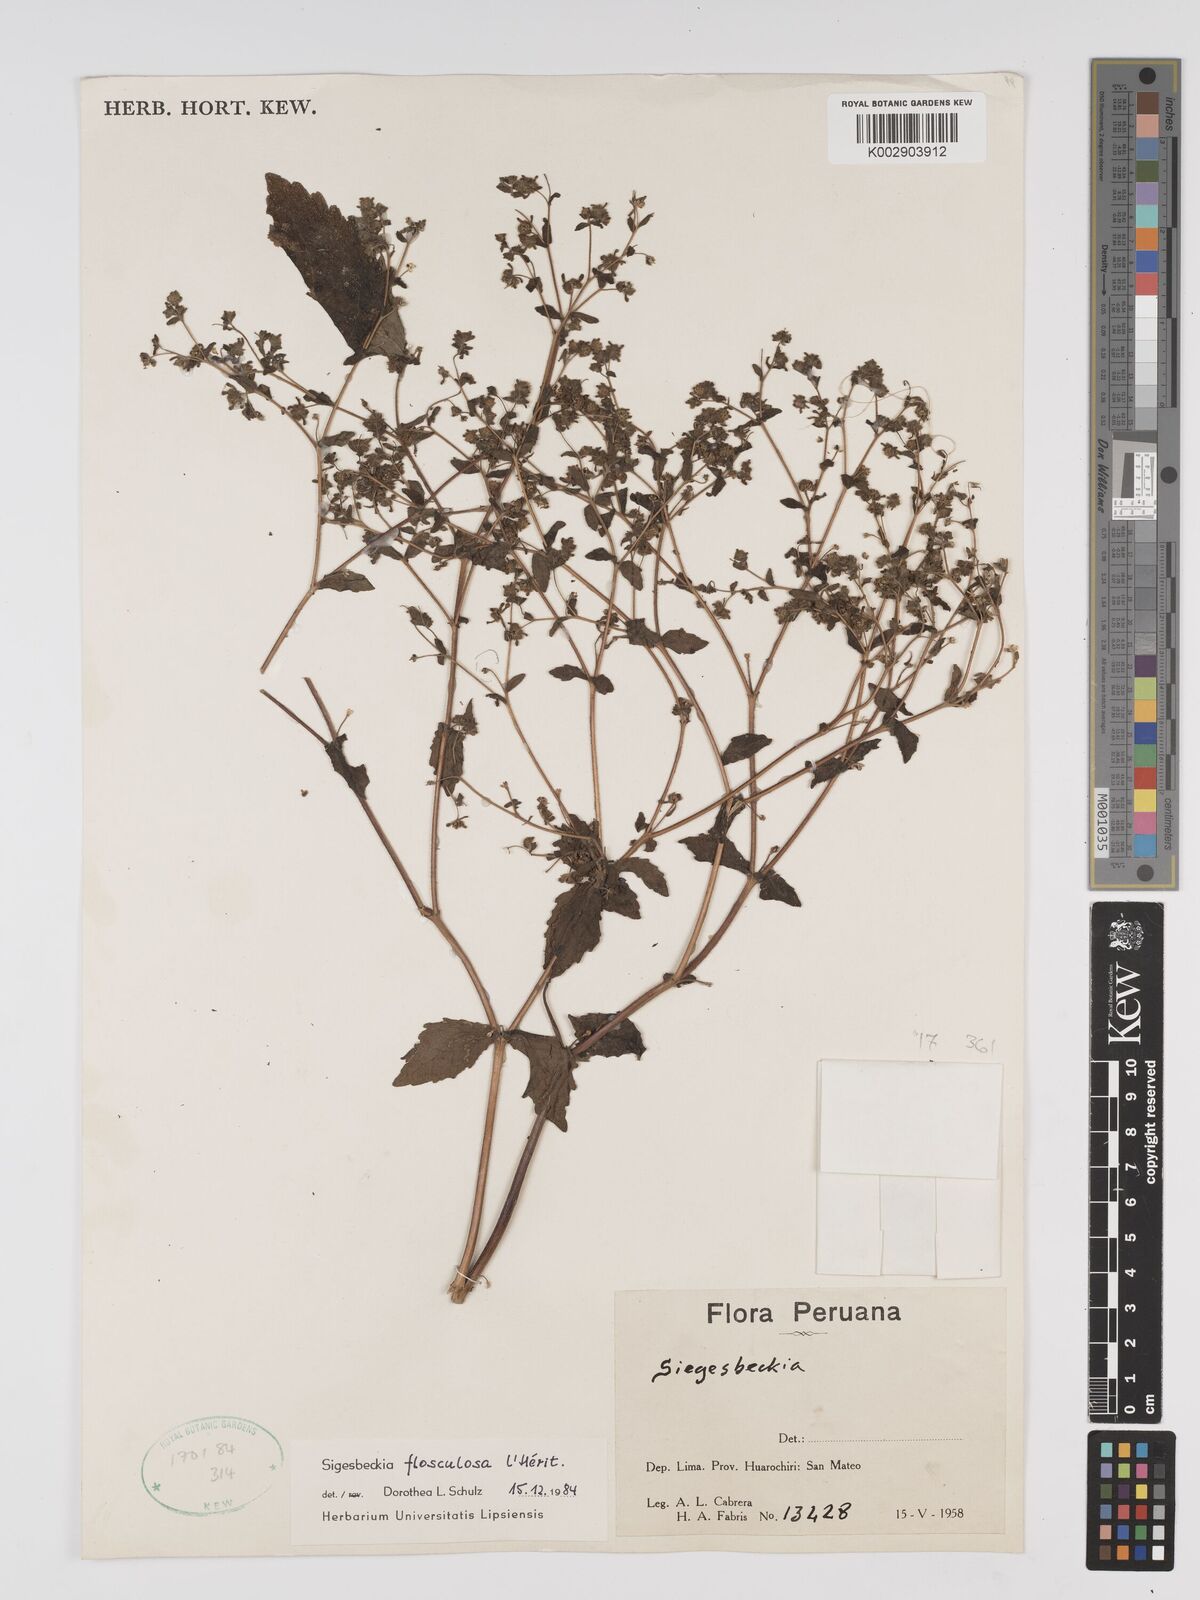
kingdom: Plantae
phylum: Tracheophyta
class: Magnoliopsida
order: Asterales
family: Asteraceae
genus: Sigesbeckia
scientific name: Sigesbeckia flosculosa
